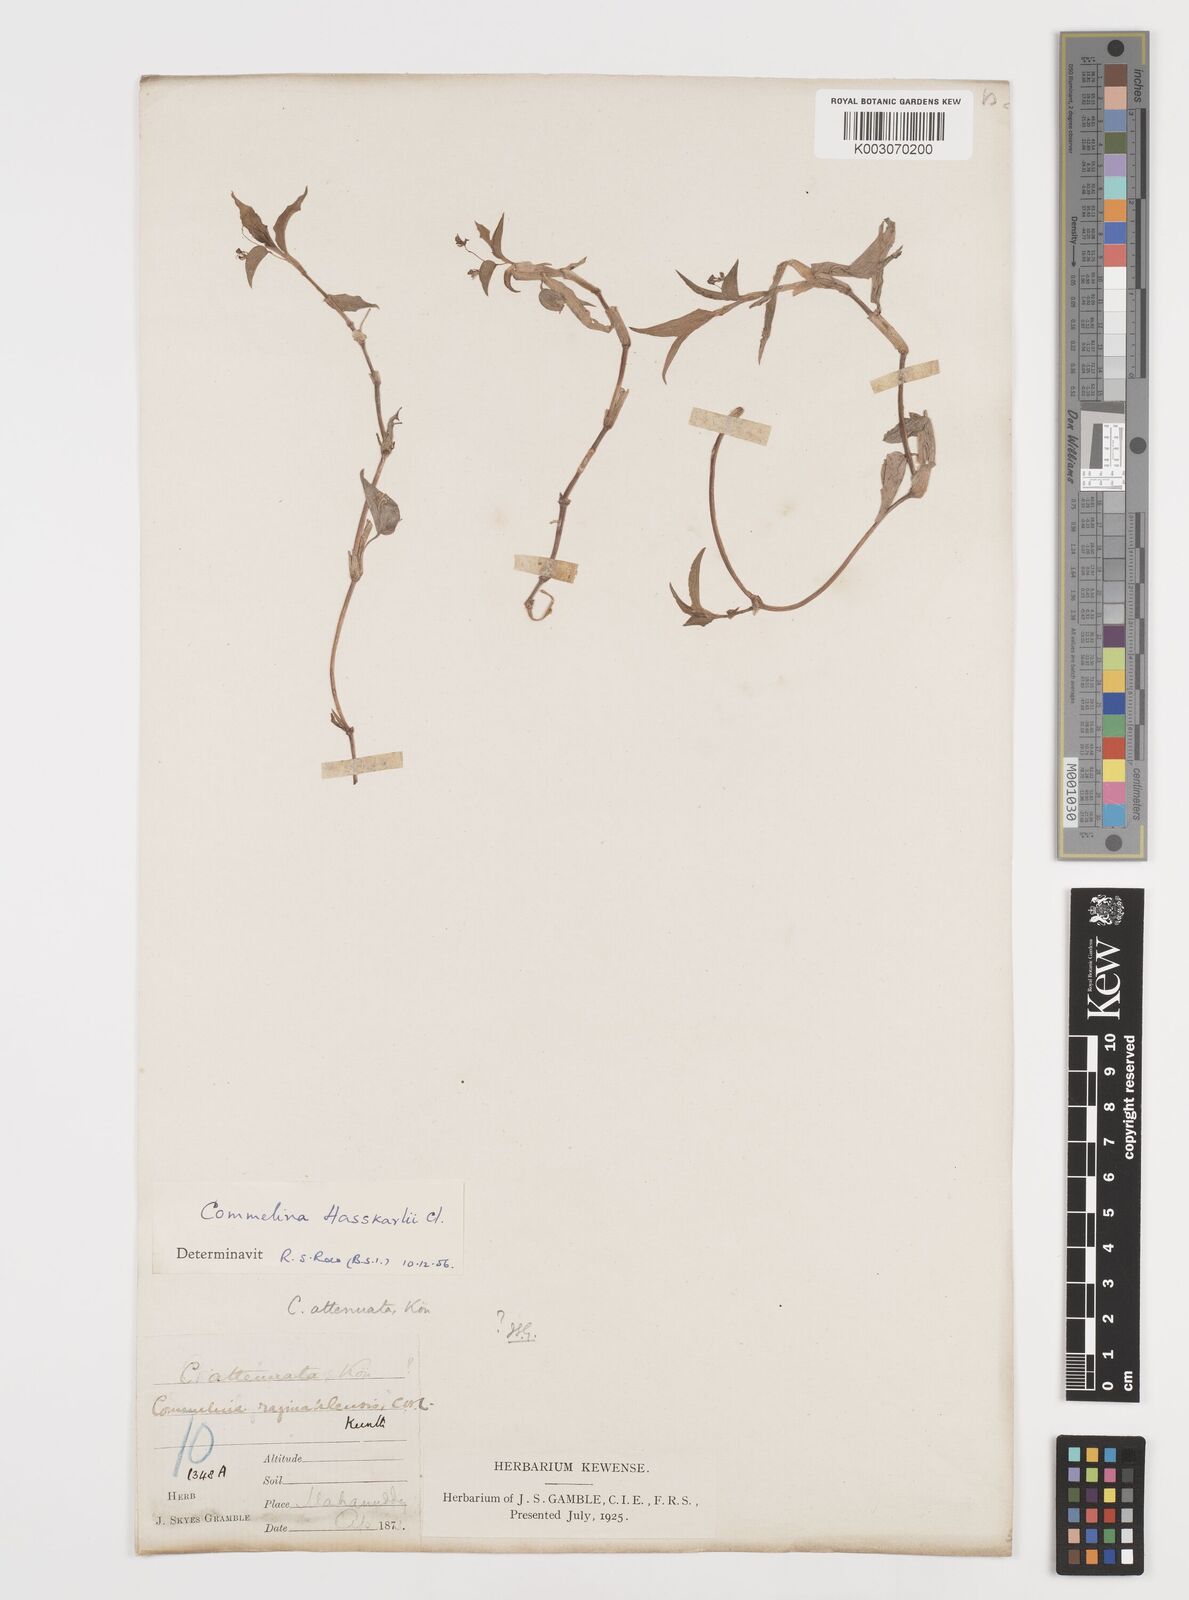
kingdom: Plantae
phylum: Tracheophyta
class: Liliopsida
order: Commelinales
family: Commelinaceae
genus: Commelina
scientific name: Commelina attenuata
